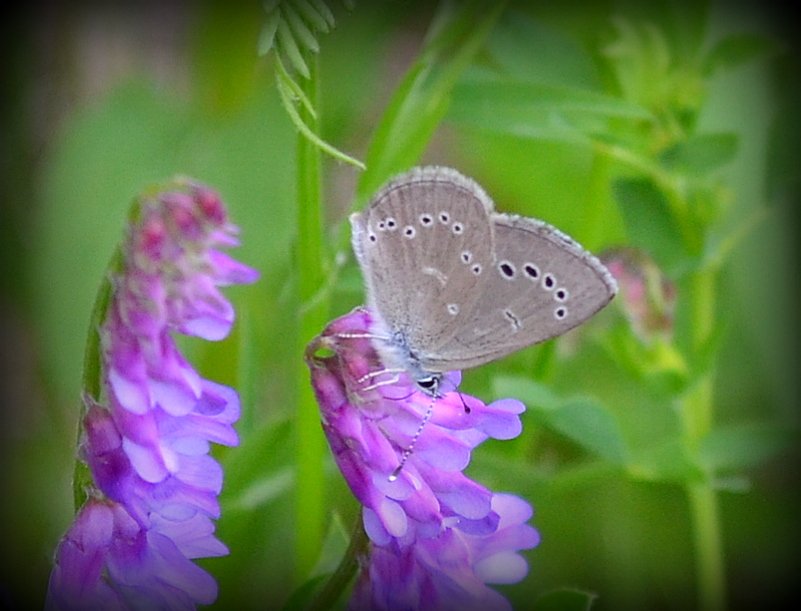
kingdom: Animalia
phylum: Arthropoda
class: Insecta
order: Lepidoptera
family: Lycaenidae
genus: Glaucopsyche
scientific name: Glaucopsyche lygdamus
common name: Silvery Blue
